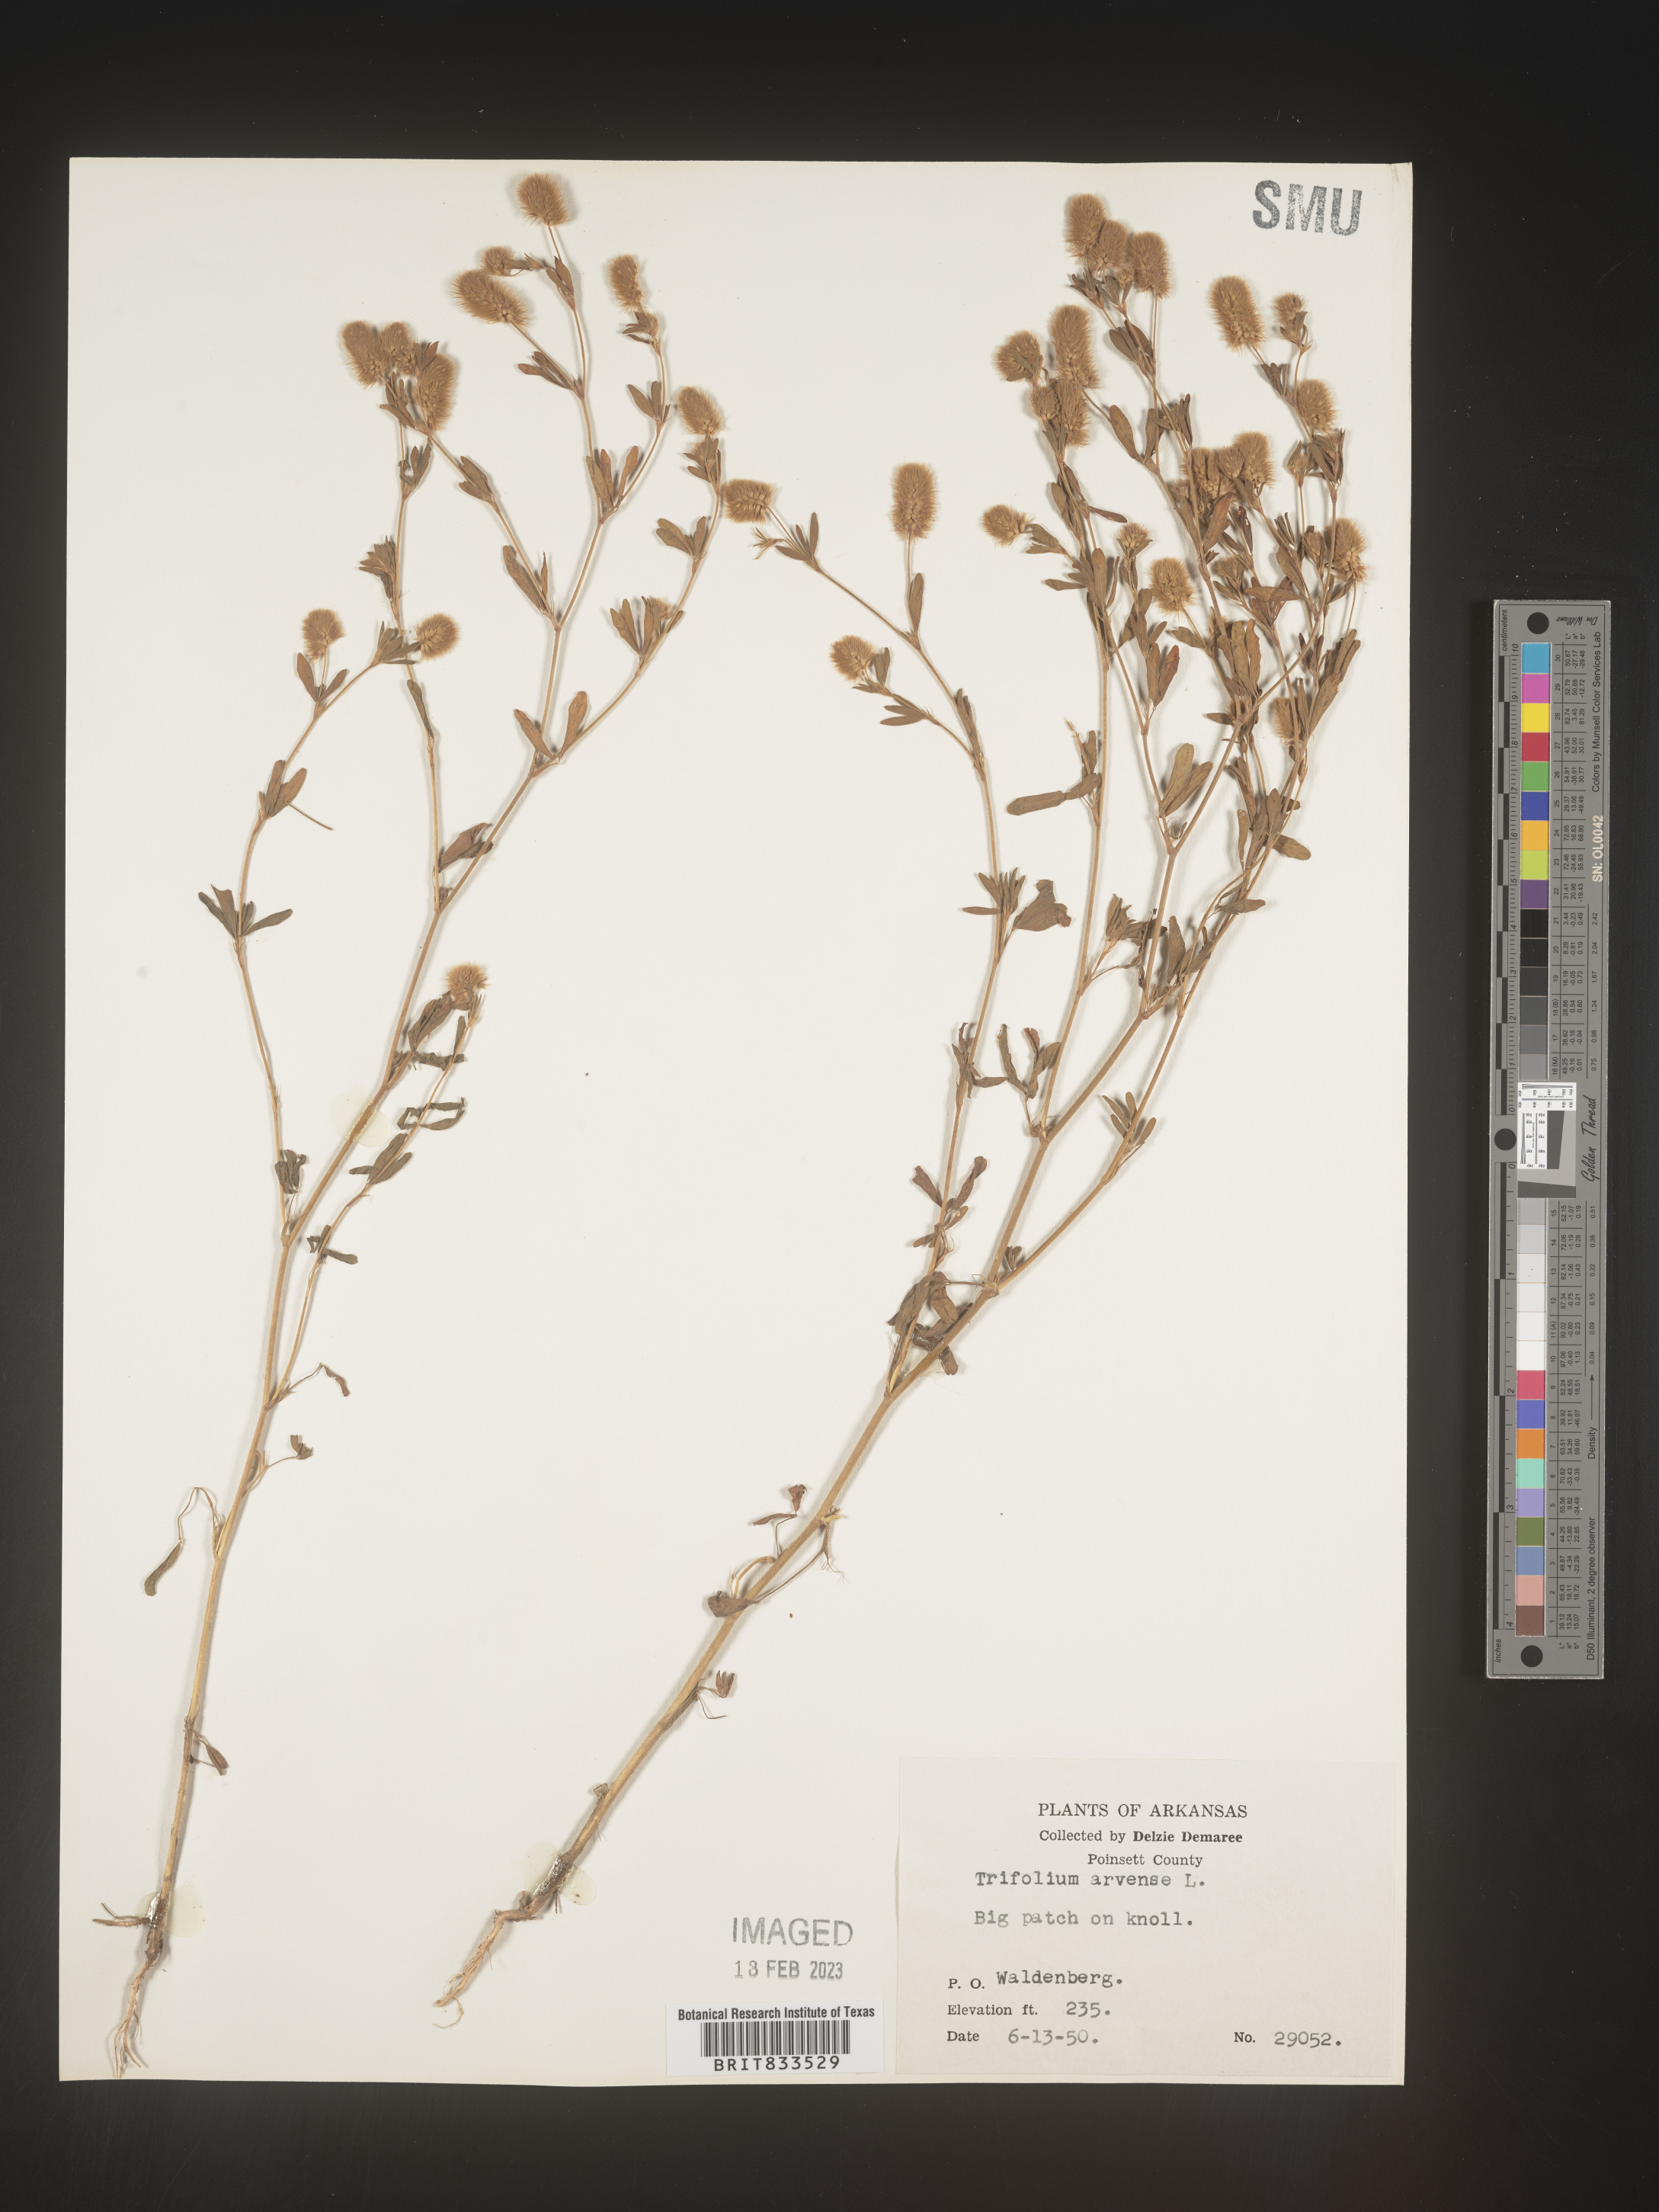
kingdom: Plantae
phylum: Tracheophyta
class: Magnoliopsida
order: Fabales
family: Fabaceae
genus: Trifolium
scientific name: Trifolium arvense
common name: Hare's-foot clover
